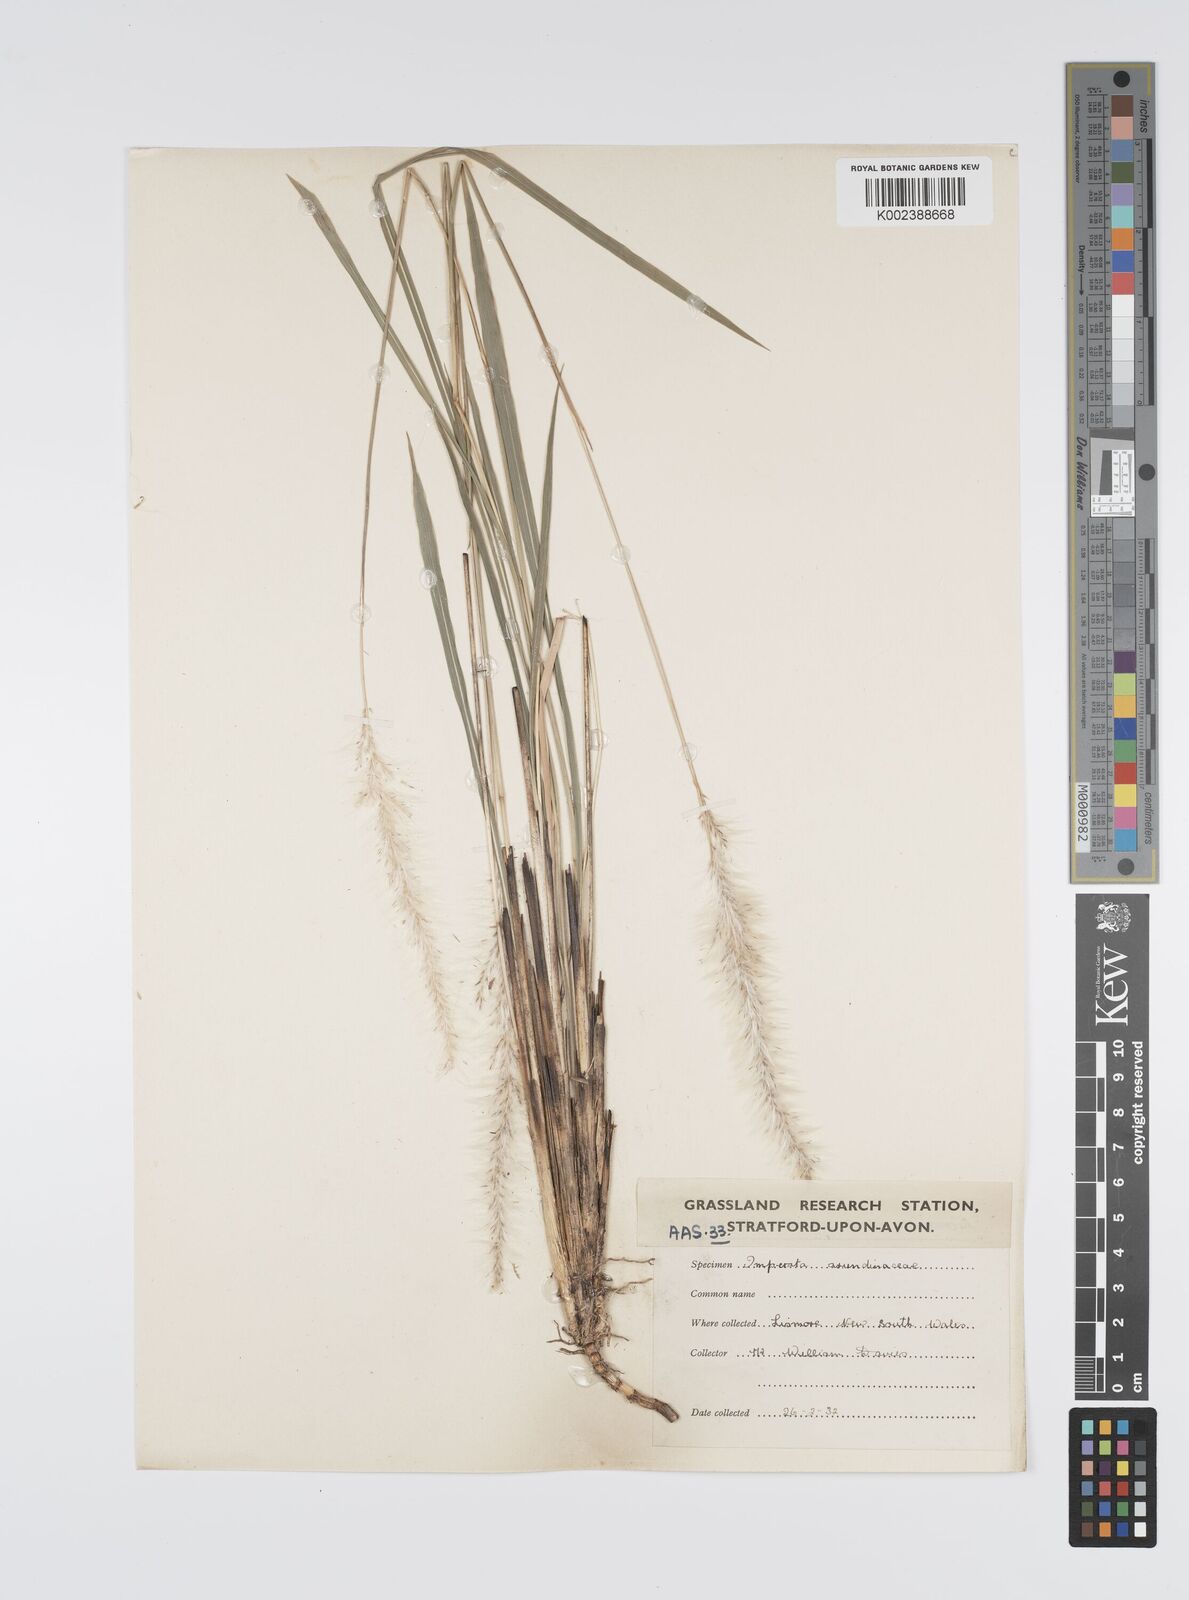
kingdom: Plantae
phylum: Tracheophyta
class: Liliopsida
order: Poales
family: Poaceae
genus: Imperata
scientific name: Imperata cylindrica
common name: Cogongrass
